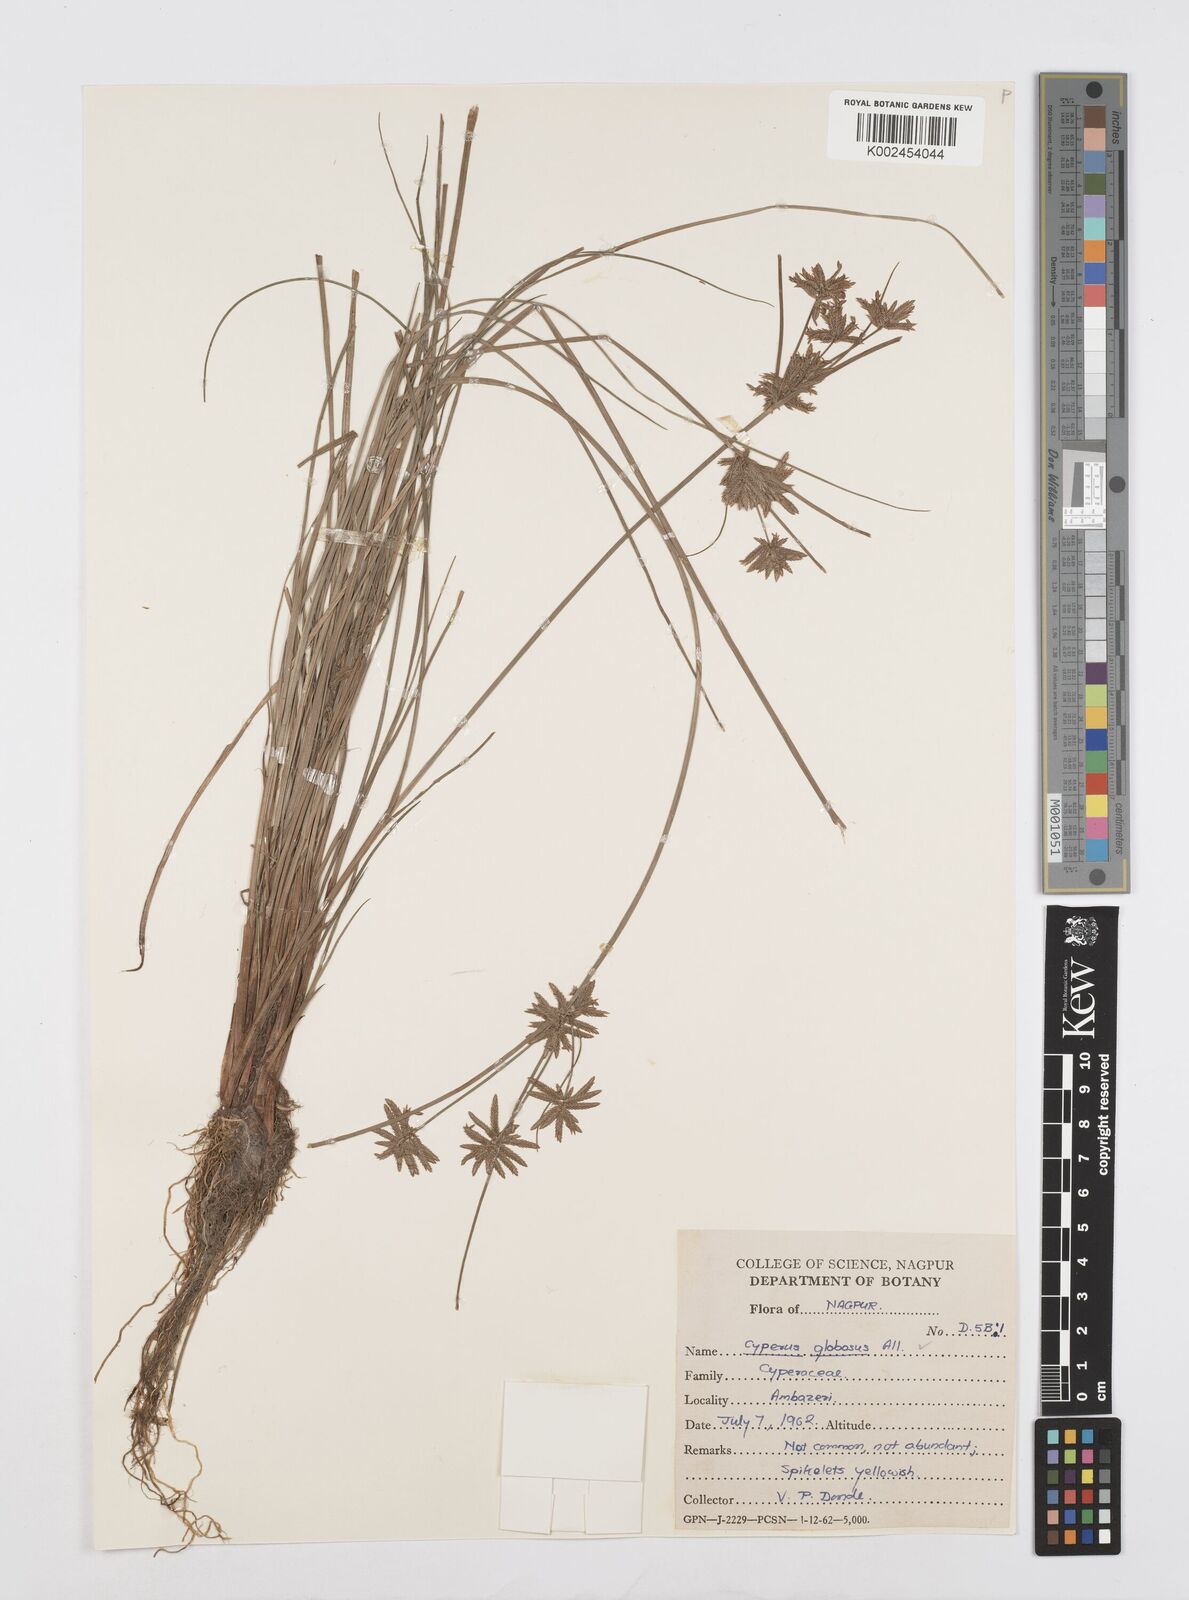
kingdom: Plantae
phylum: Tracheophyta
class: Liliopsida
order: Poales
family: Cyperaceae
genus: Cyperus
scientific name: Cyperus flavidus
